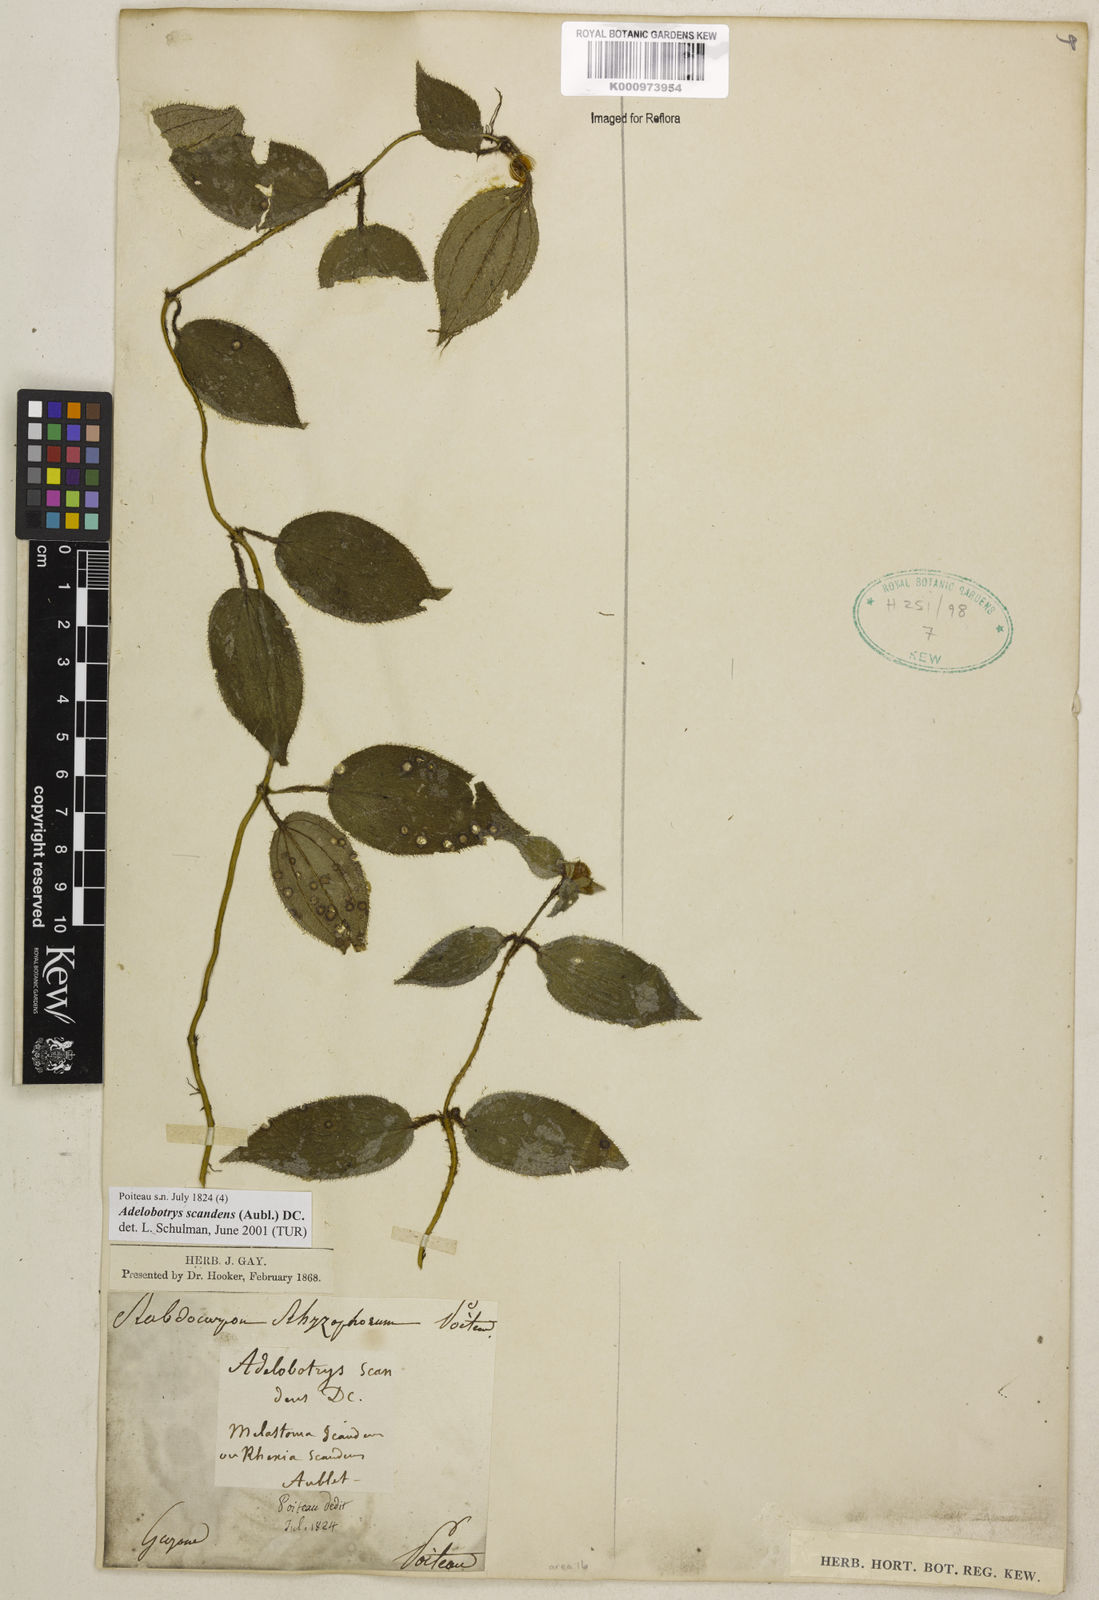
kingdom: Plantae
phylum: Tracheophyta
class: Magnoliopsida
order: Myrtales
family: Melastomataceae
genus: Adelobotrys
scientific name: Adelobotrys scandens
